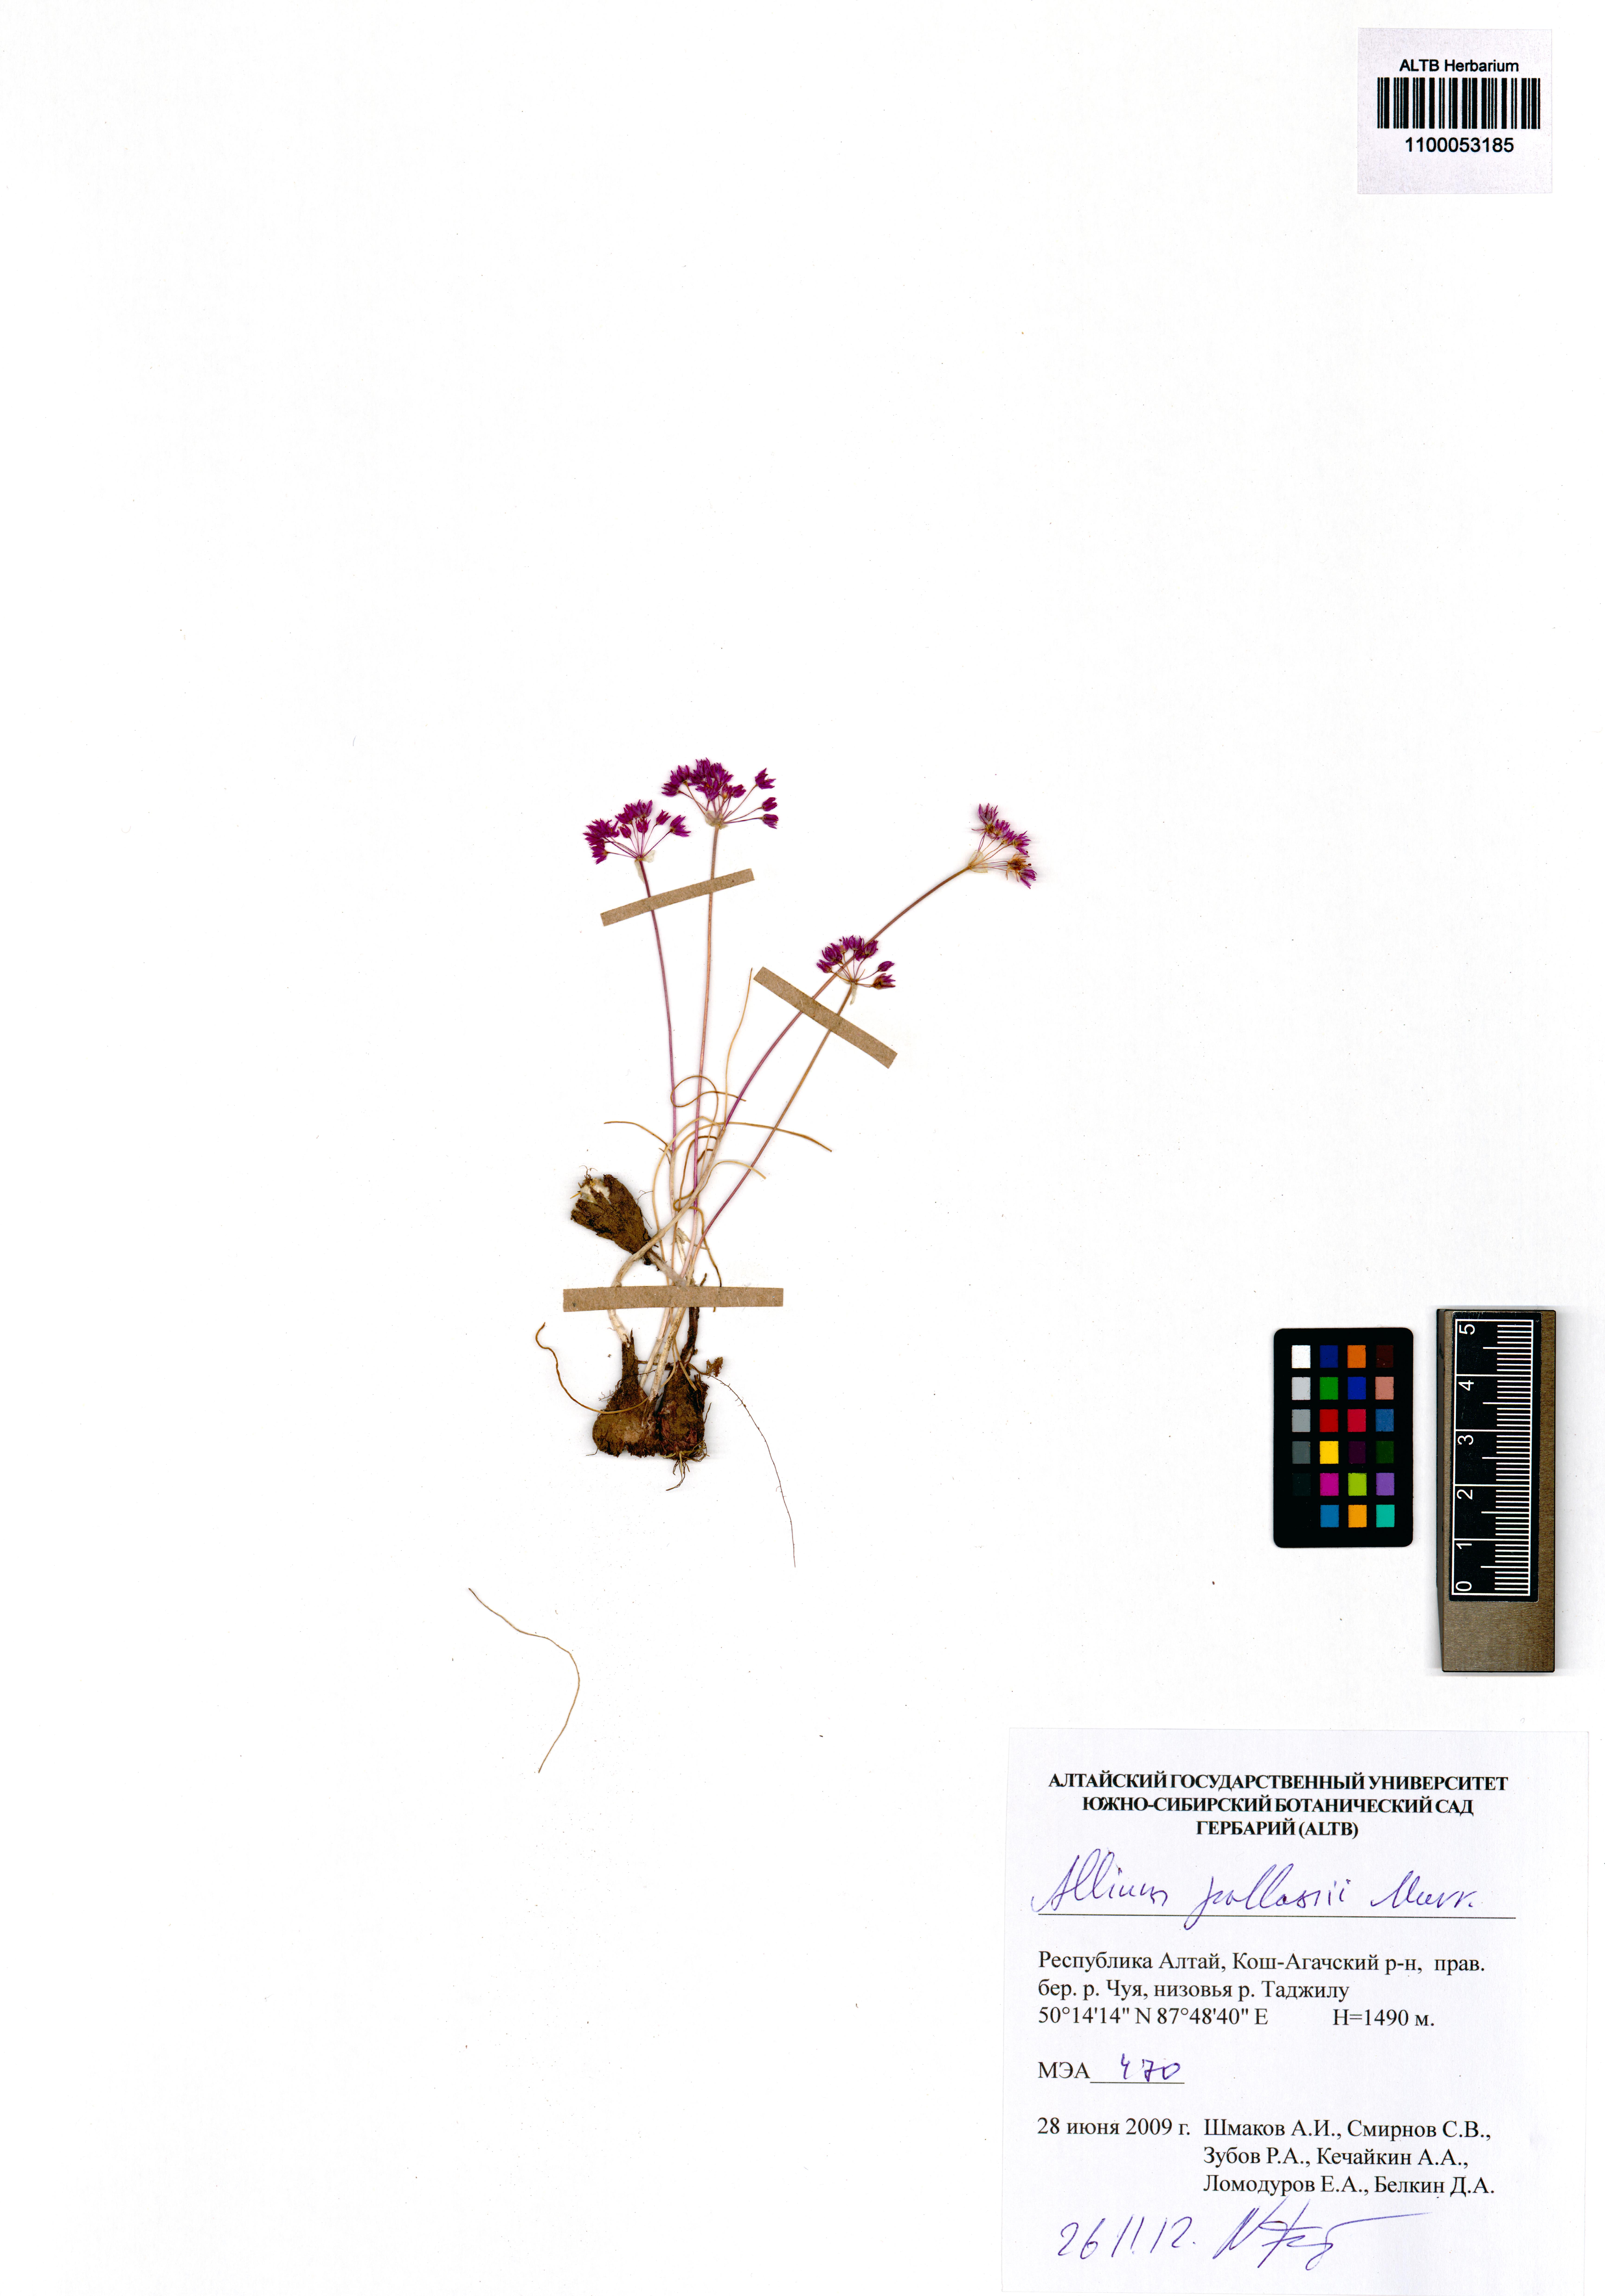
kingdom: Plantae
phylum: Tracheophyta
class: Liliopsida
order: Asparagales
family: Amaryllidaceae
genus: Allium
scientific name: Allium pallasii
